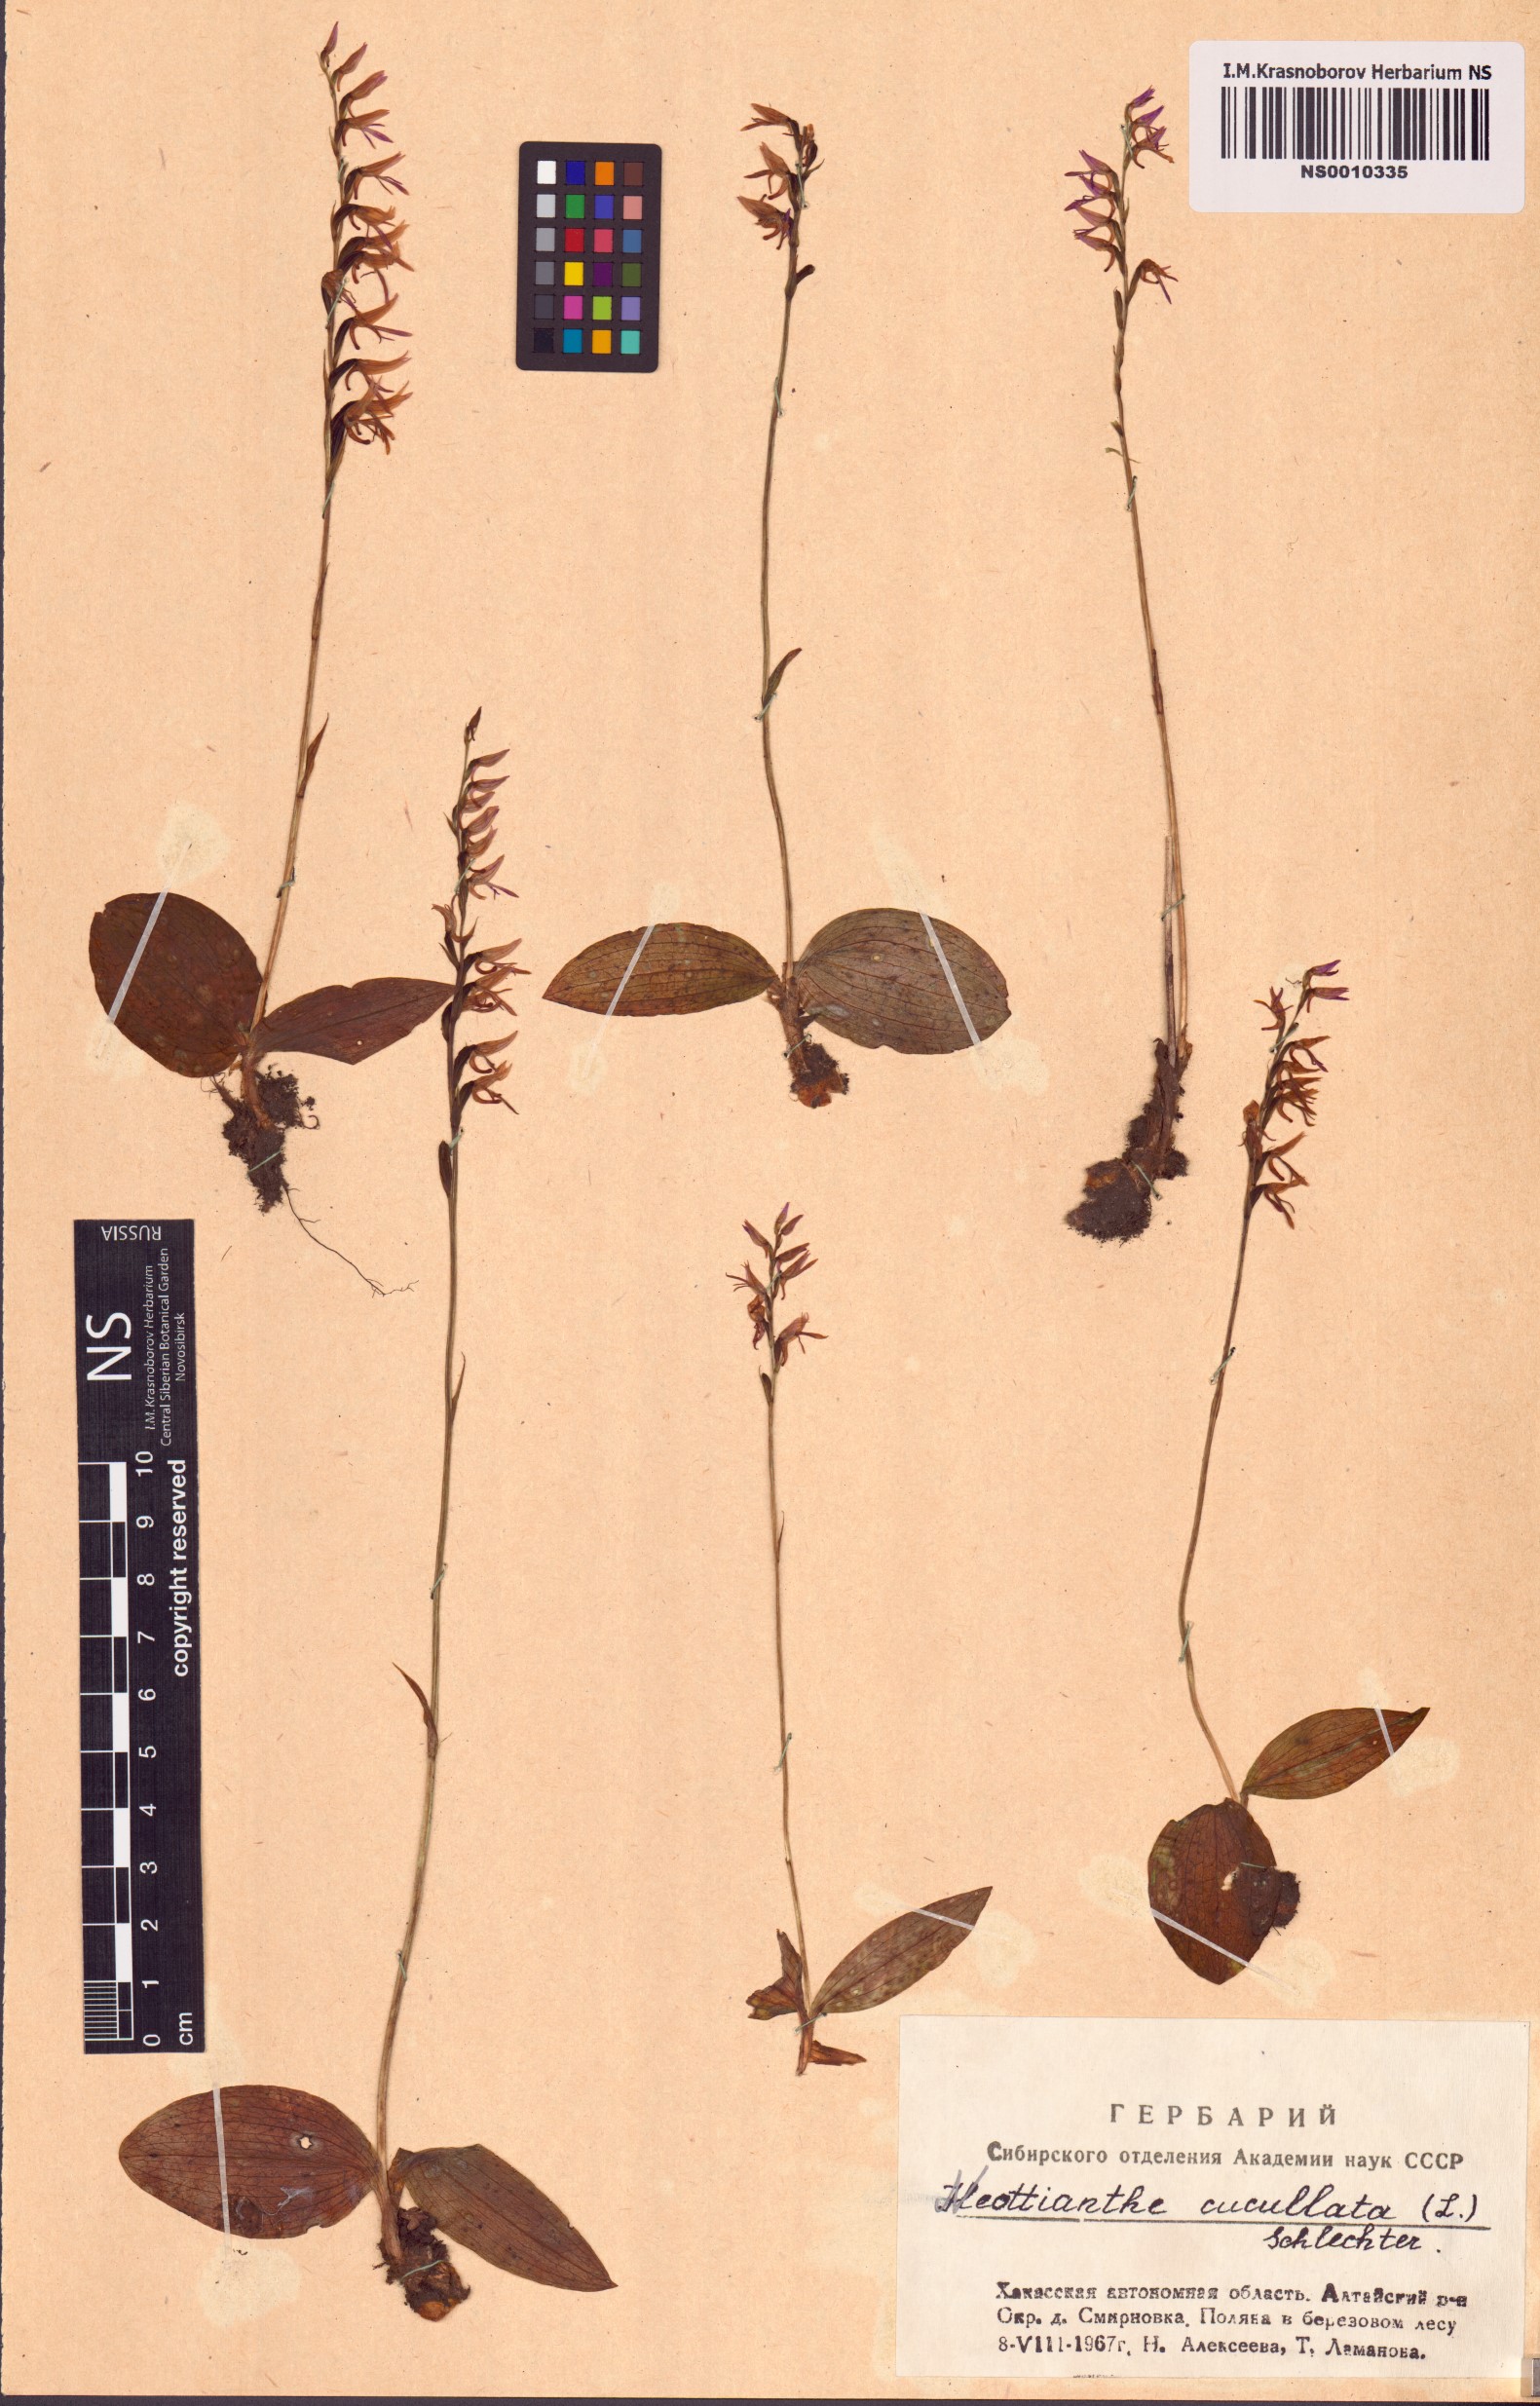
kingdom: Plantae
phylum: Tracheophyta
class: Liliopsida
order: Asparagales
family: Orchidaceae
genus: Hemipilia
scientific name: Hemipilia cucullata
